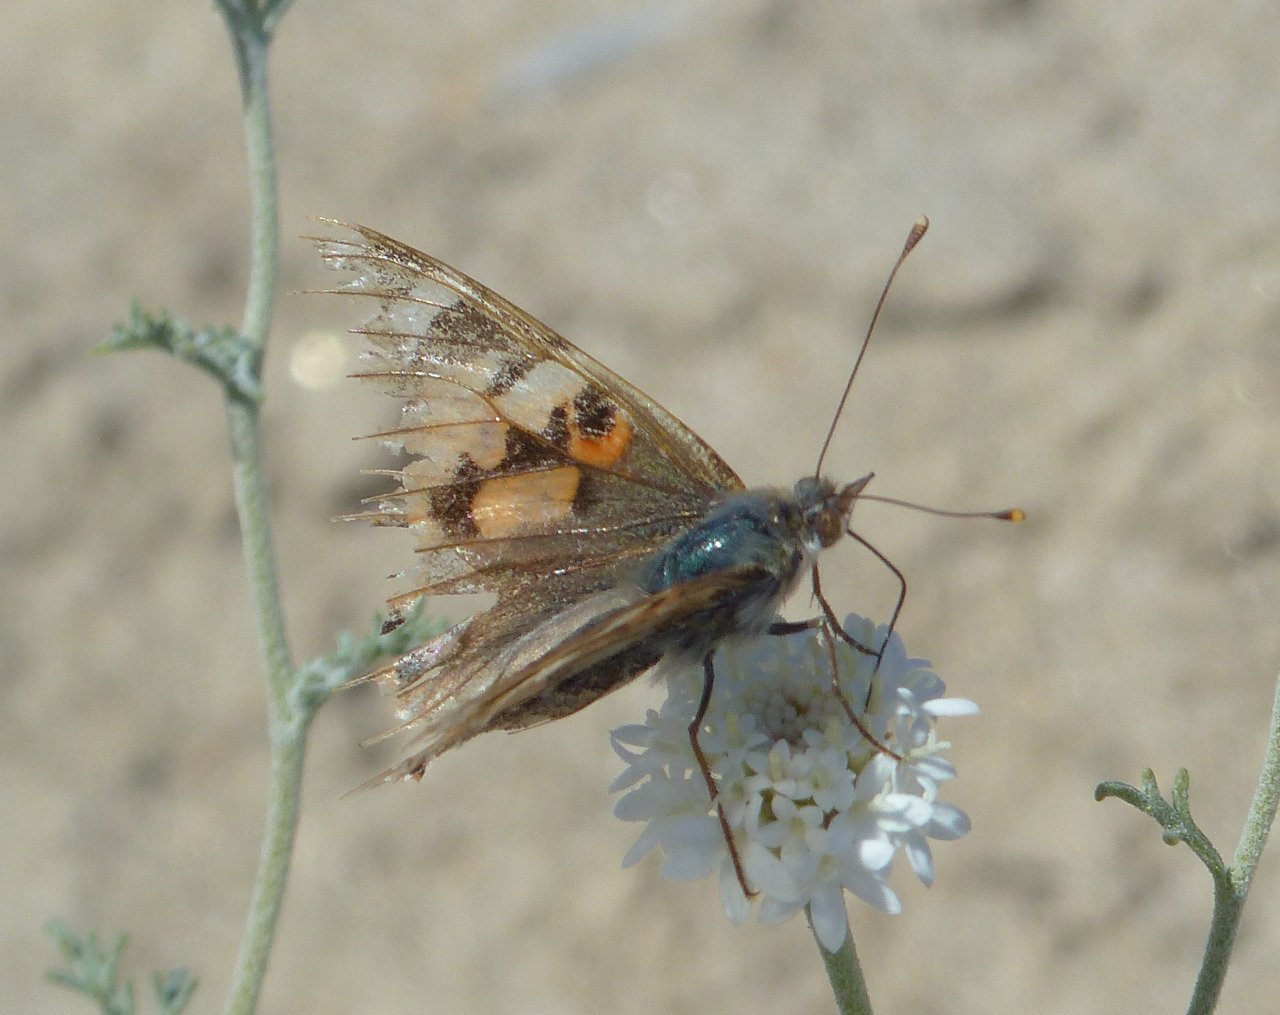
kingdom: Animalia
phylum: Arthropoda
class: Insecta
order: Lepidoptera
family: Nymphalidae
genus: Vanessa
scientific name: Vanessa cardui
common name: Painted Lady
